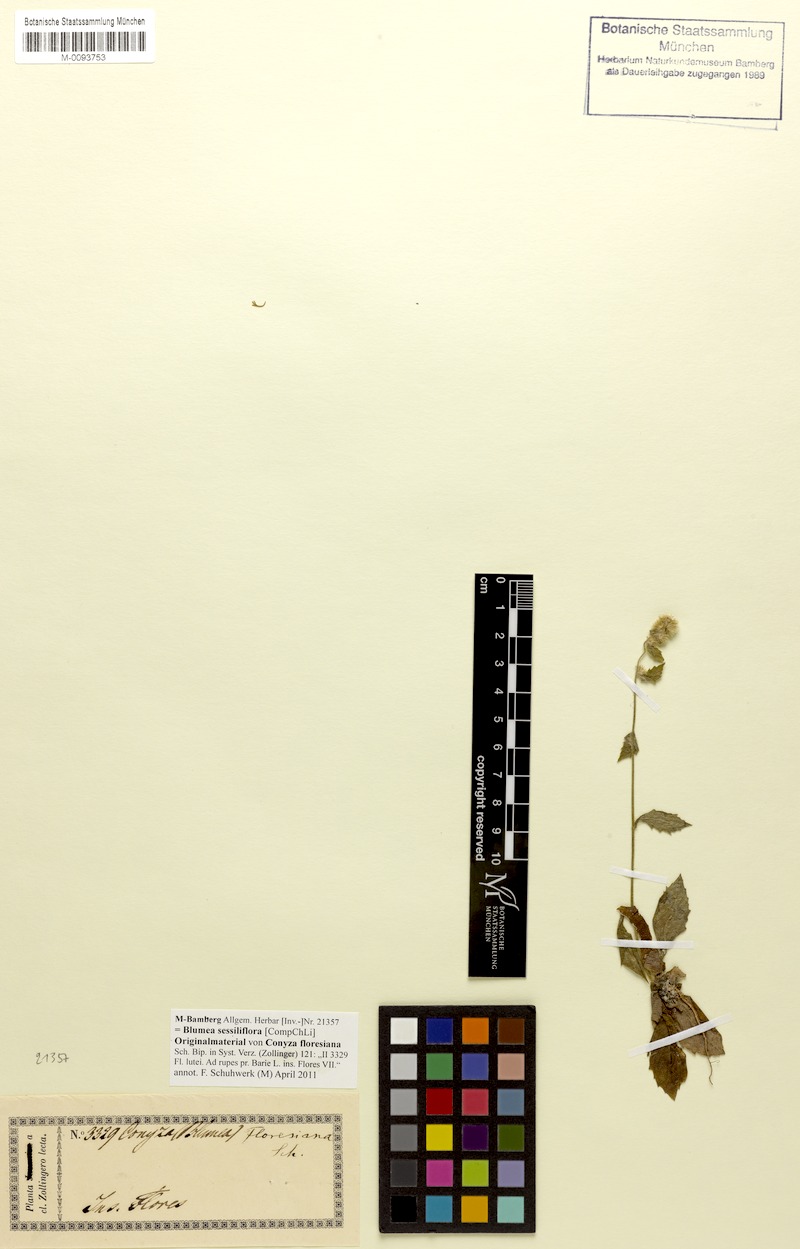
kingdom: Plantae
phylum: Tracheophyta
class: Magnoliopsida
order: Asterales
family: Asteraceae
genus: Blumea
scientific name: Blumea sessiliflora
